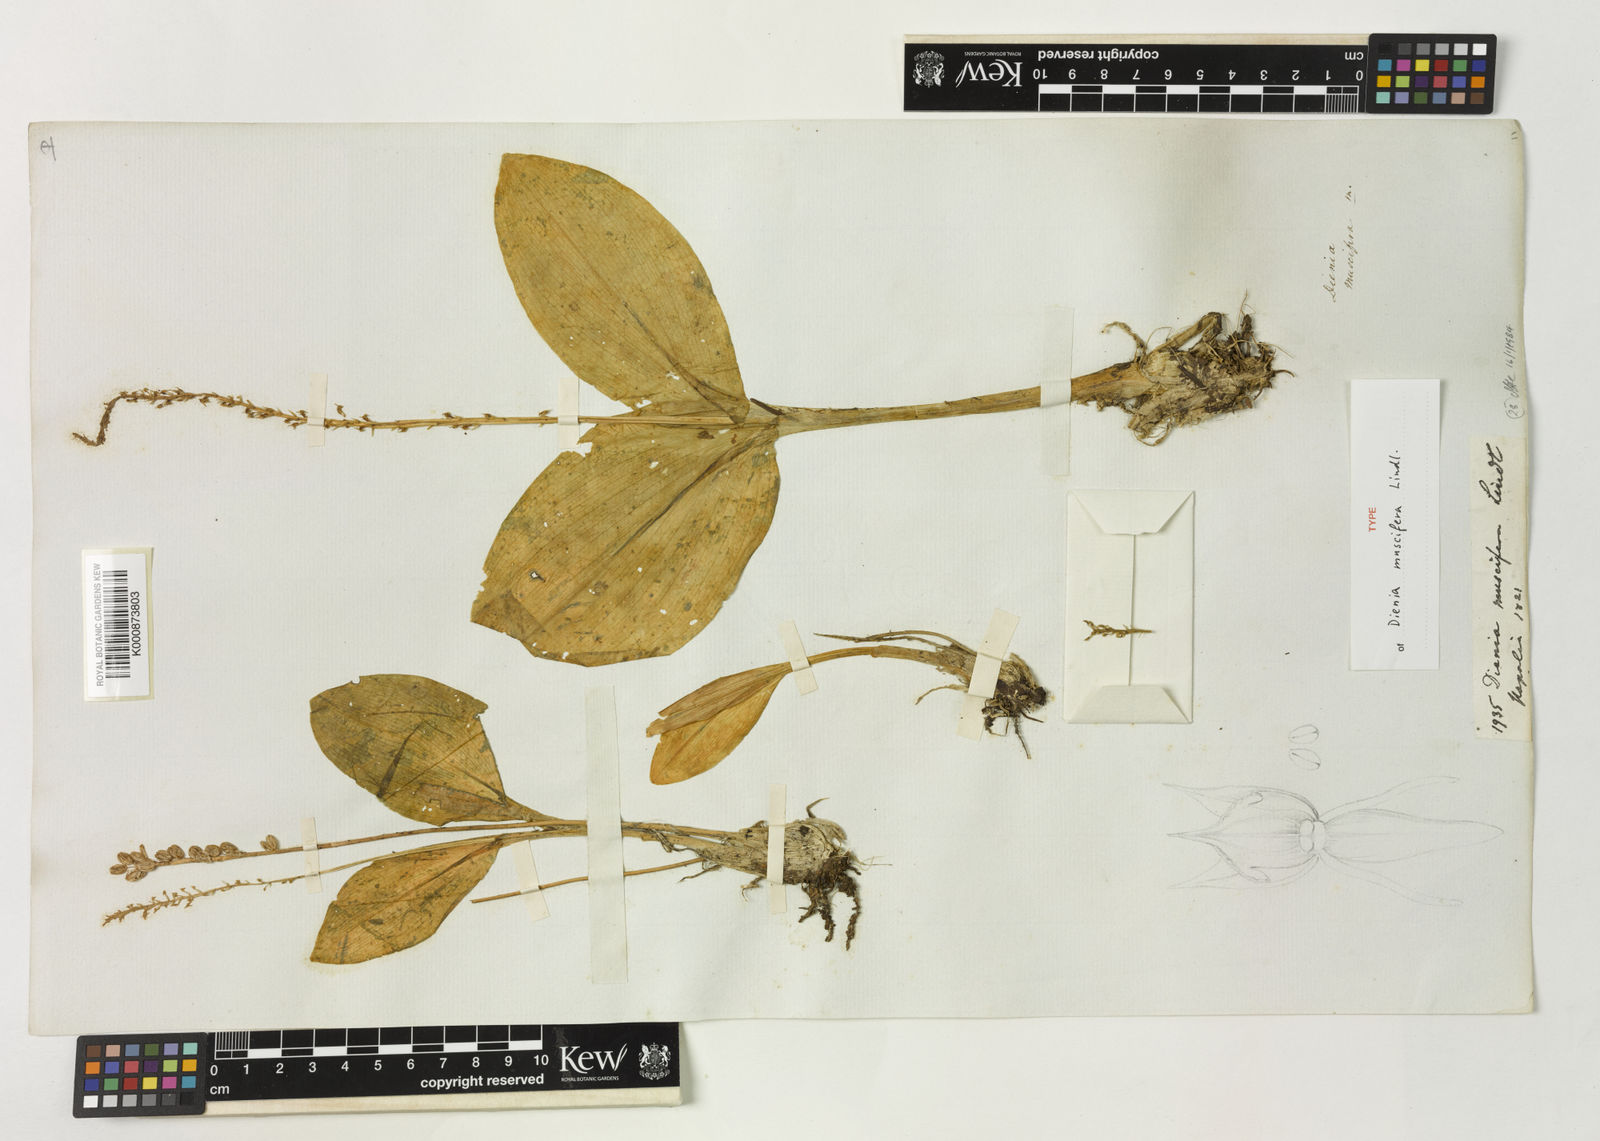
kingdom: Plantae
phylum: Tracheophyta
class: Liliopsida
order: Asparagales
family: Orchidaceae
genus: Malaxis
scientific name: Malaxis muscifera
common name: Adder-mouth orchid
